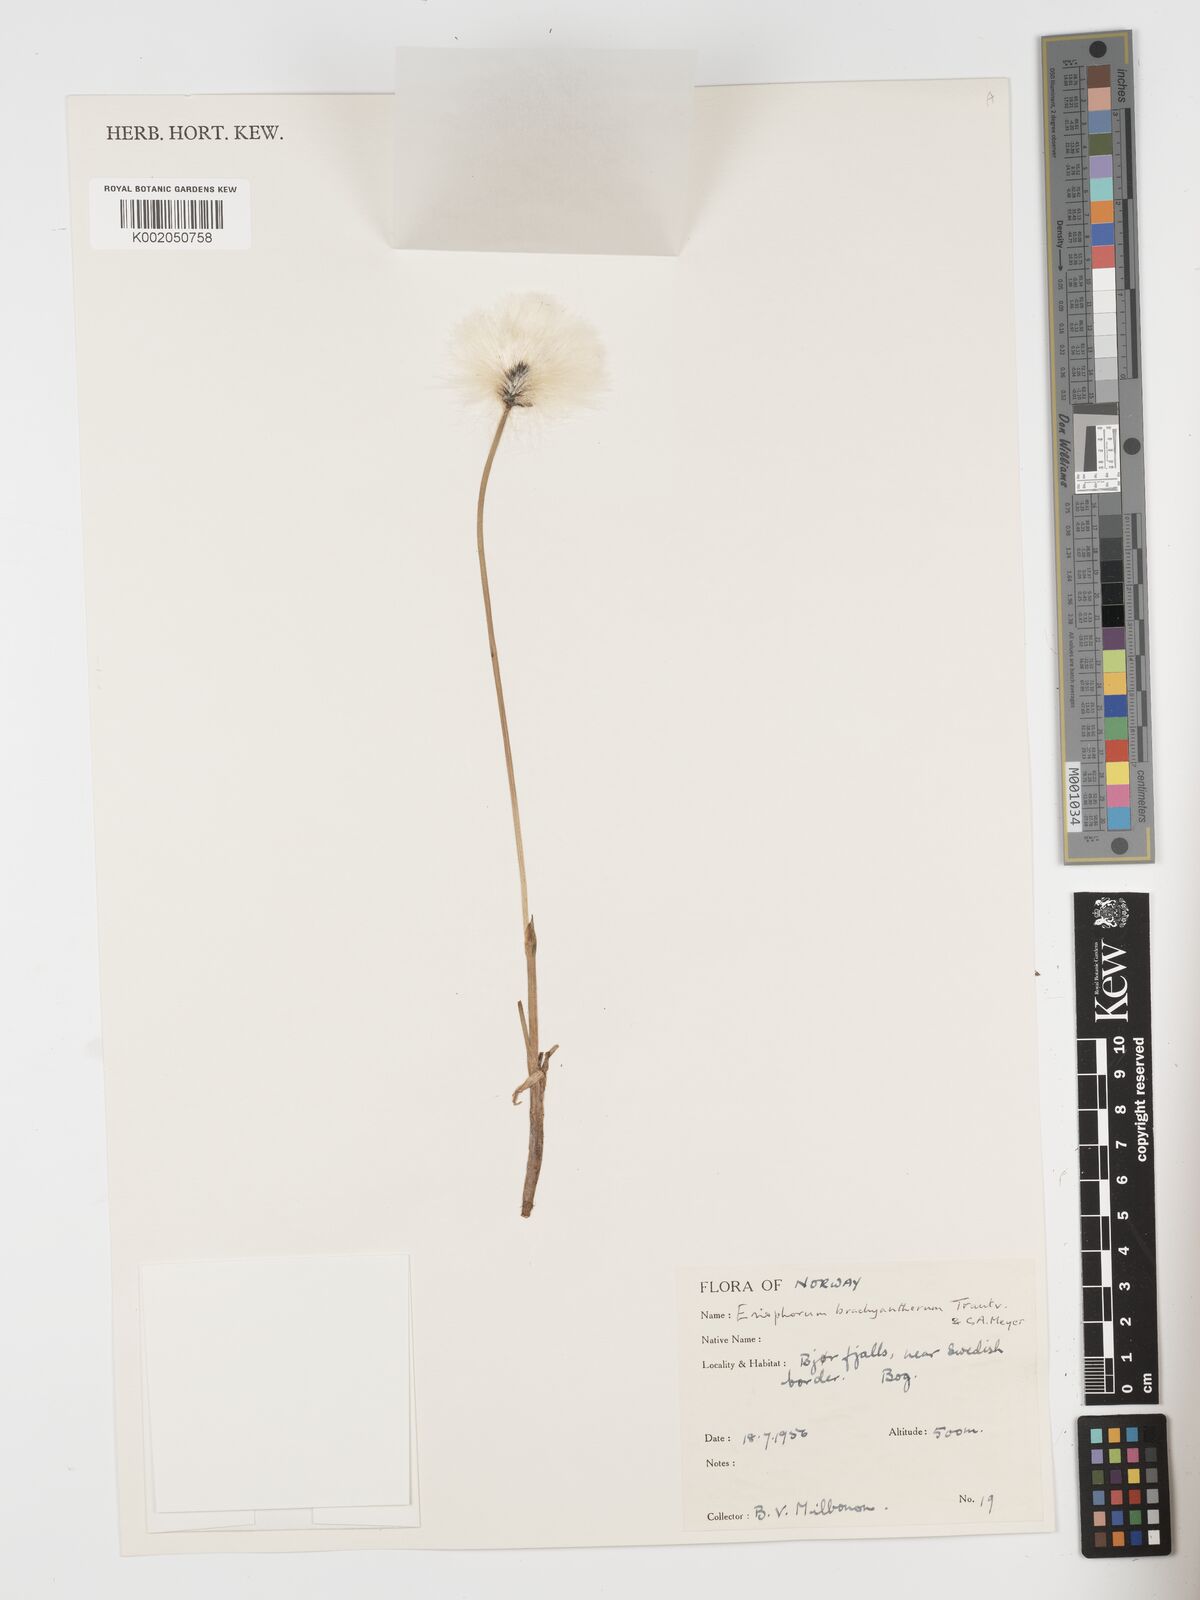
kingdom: Plantae
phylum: Tracheophyta
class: Liliopsida
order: Poales
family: Cyperaceae
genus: Eriophorum
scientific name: Eriophorum brachyantherum
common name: Closed-sheathed cottongrass
